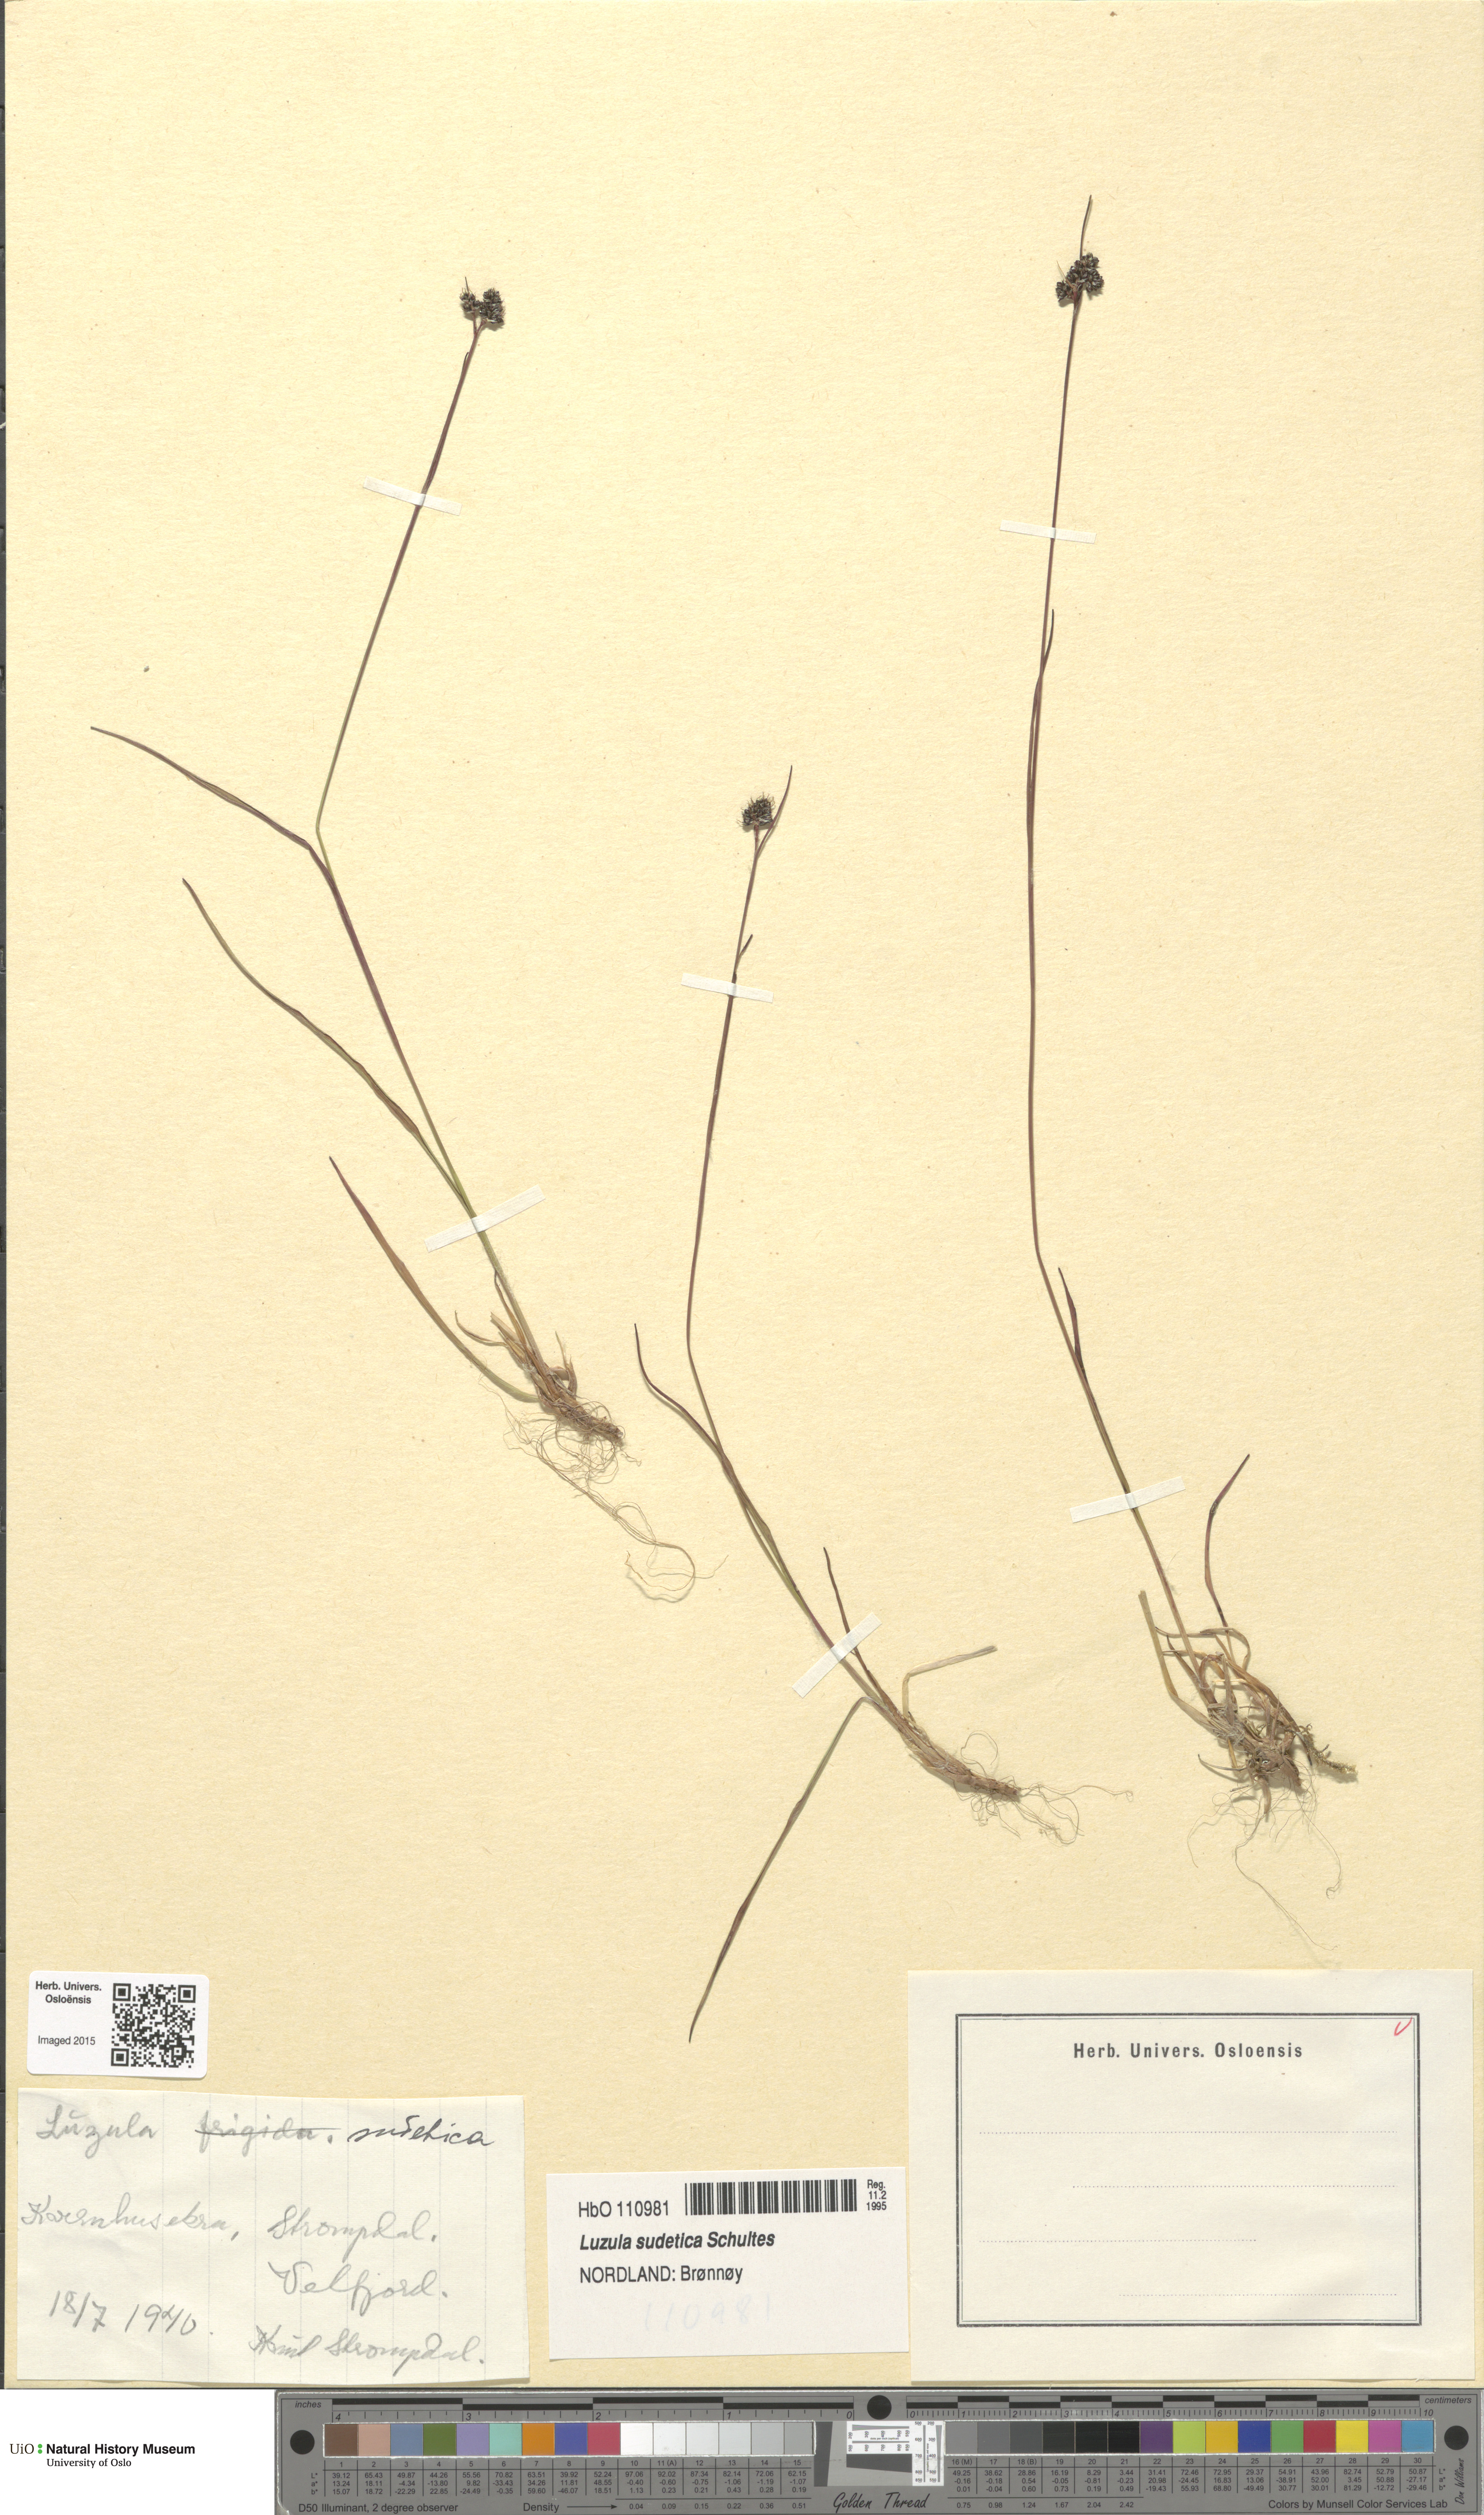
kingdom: Plantae
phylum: Tracheophyta
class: Liliopsida
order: Poales
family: Juncaceae
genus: Luzula
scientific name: Luzula sudetica
